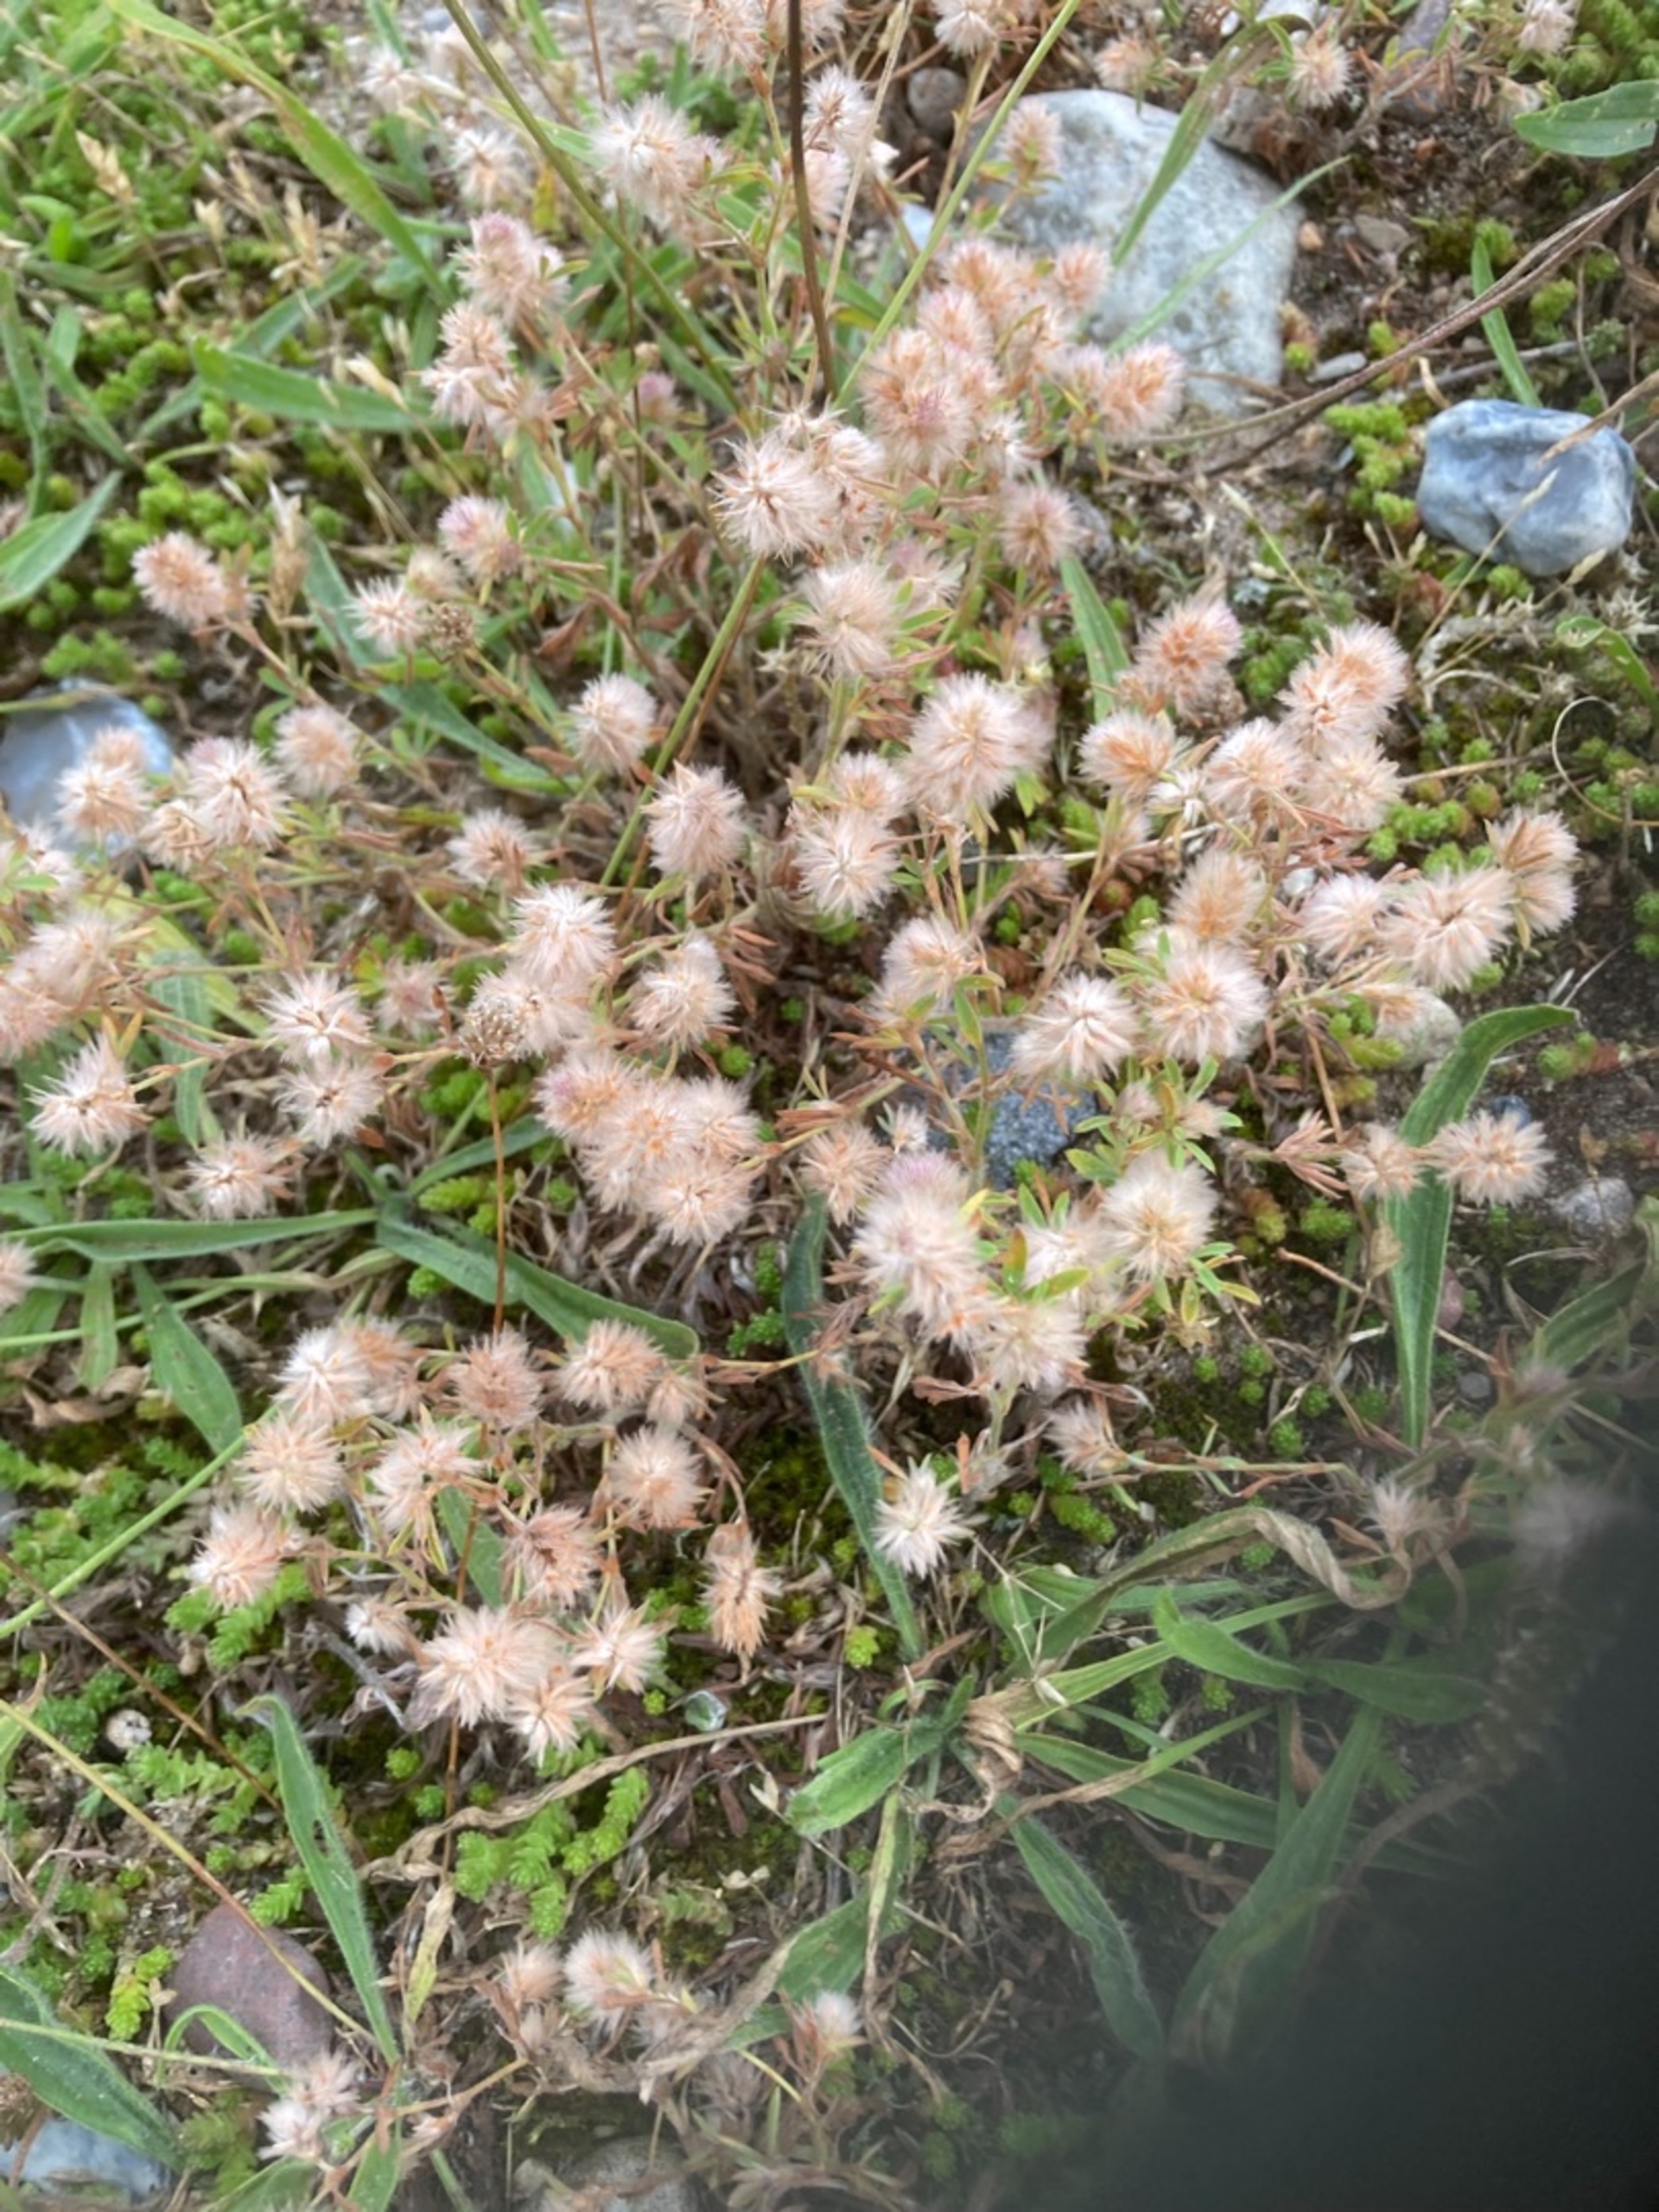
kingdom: Plantae
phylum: Tracheophyta
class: Magnoliopsida
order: Fabales
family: Fabaceae
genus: Trifolium
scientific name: Trifolium arvense
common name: Hare-kløver
